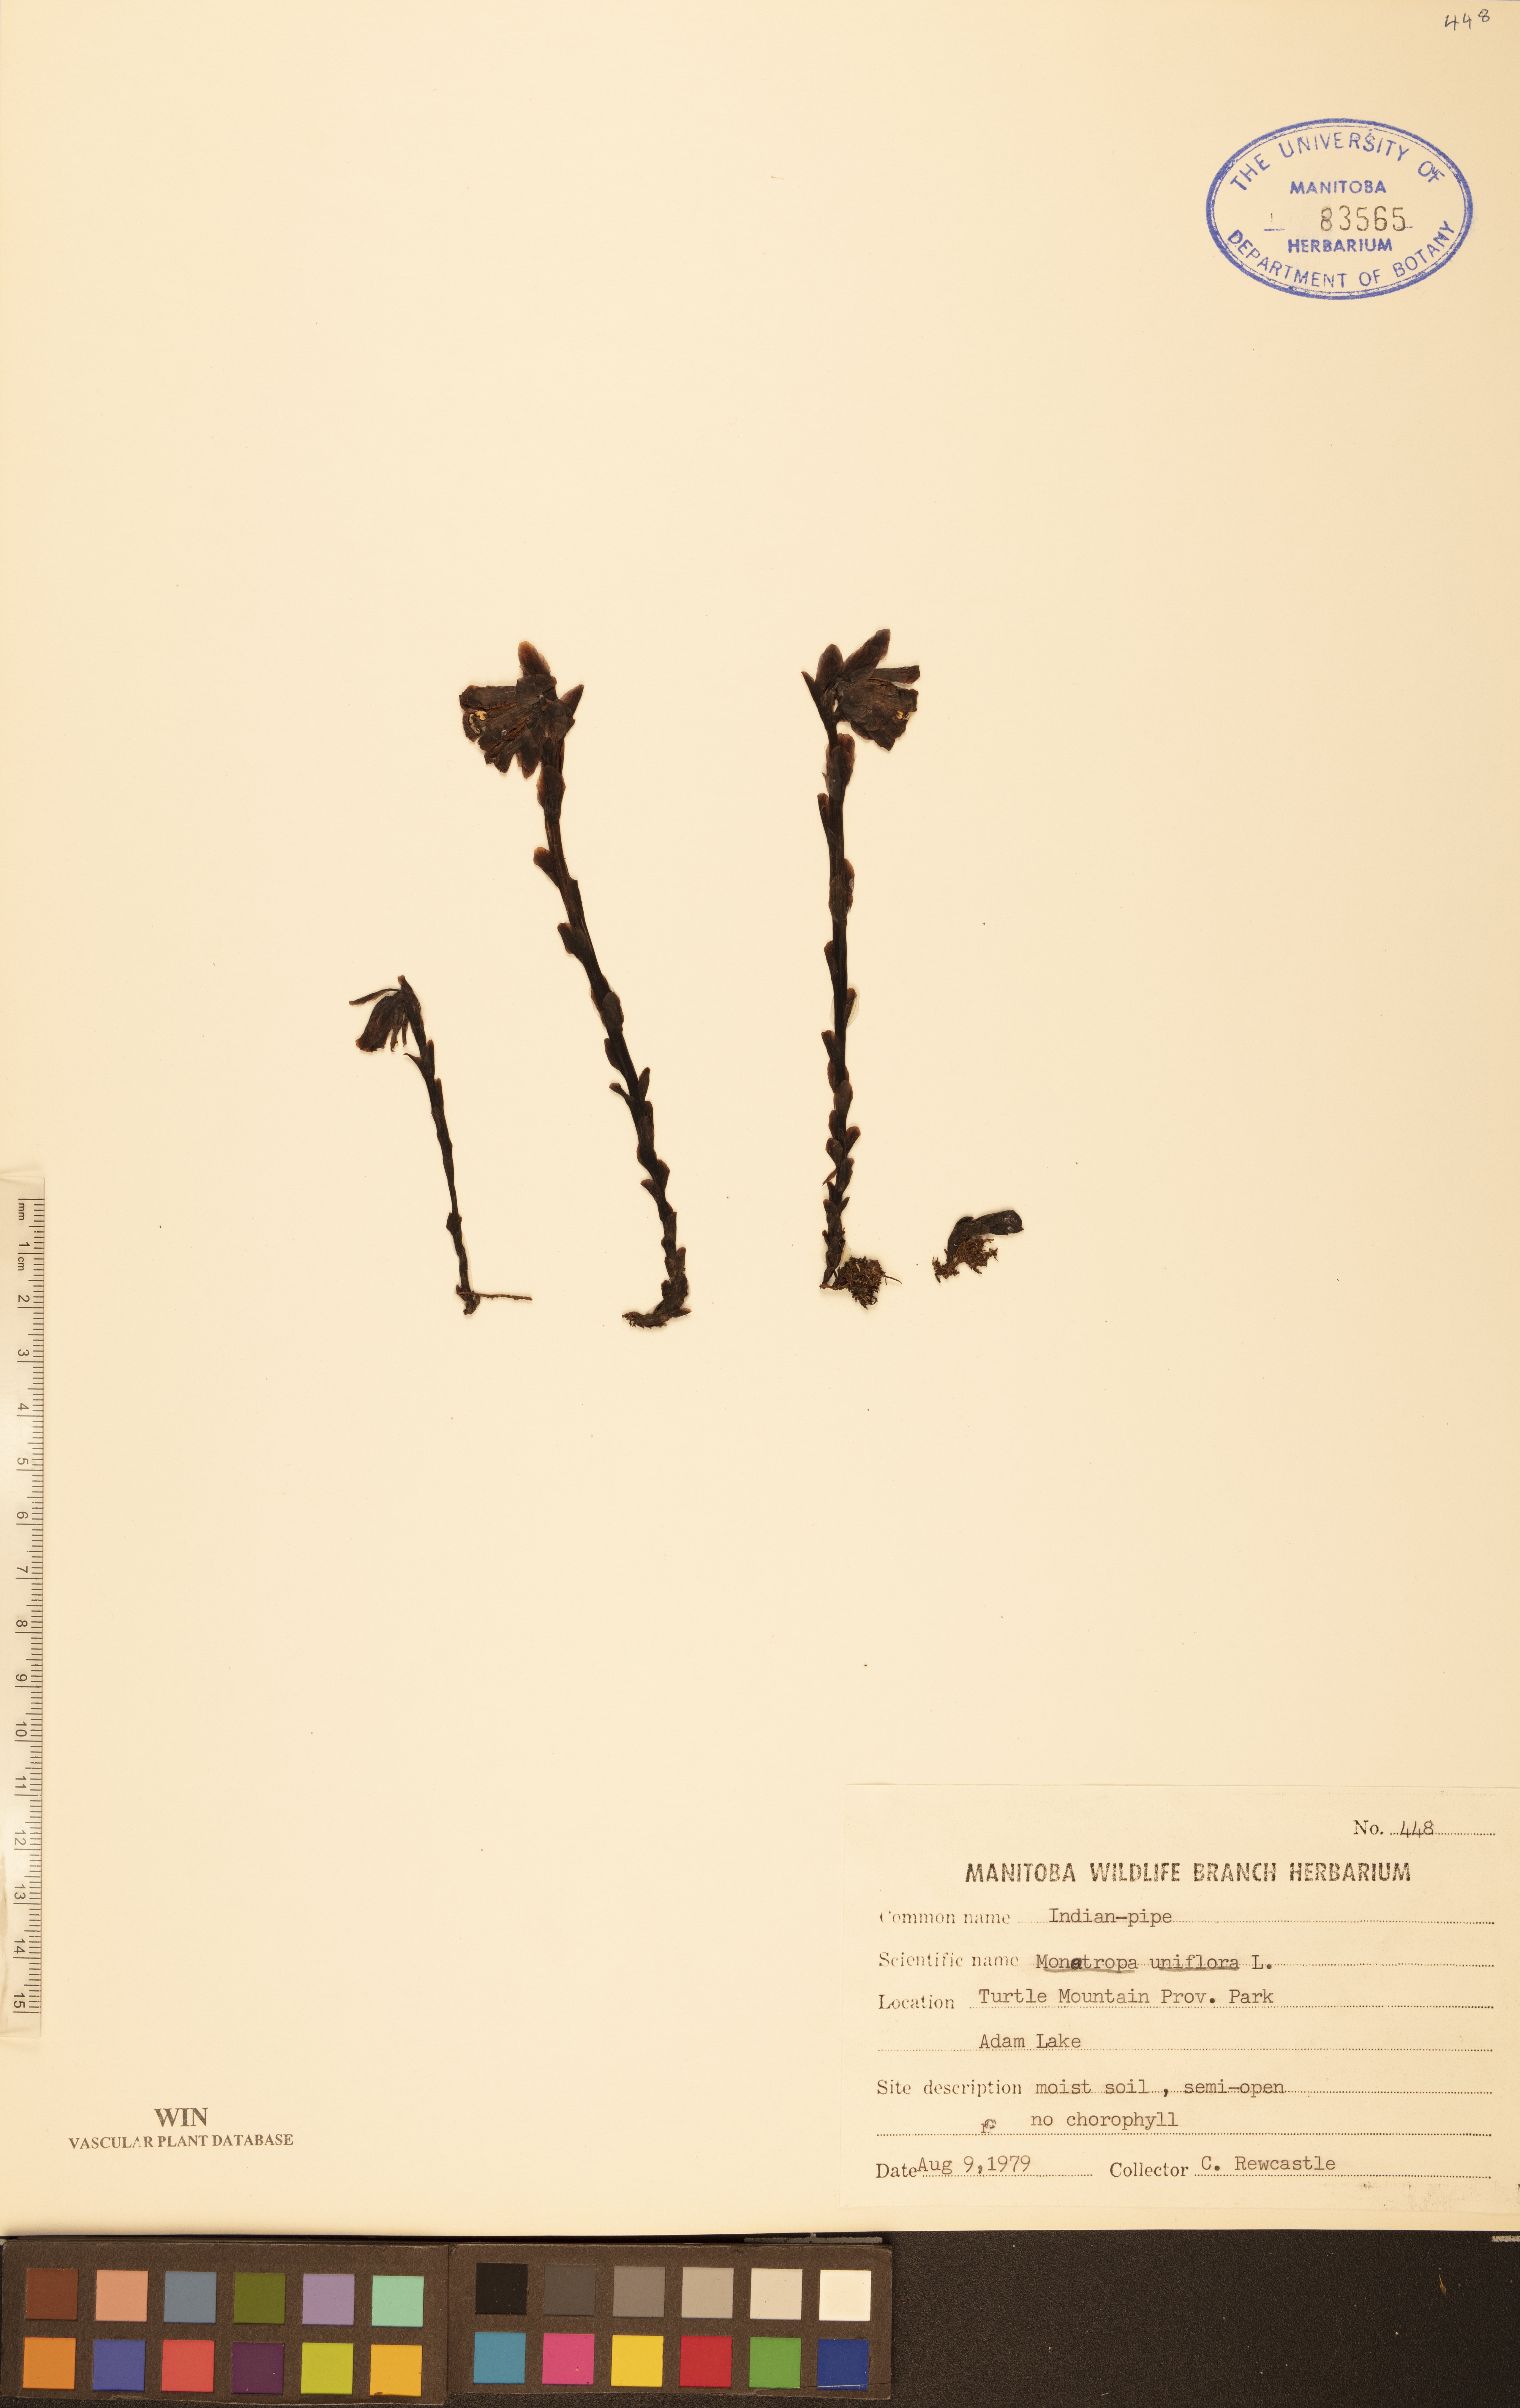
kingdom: Plantae
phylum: Tracheophyta
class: Magnoliopsida
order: Ericales
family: Ericaceae
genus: Monotropa
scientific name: Monotropa uniflora
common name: Convulsion root
